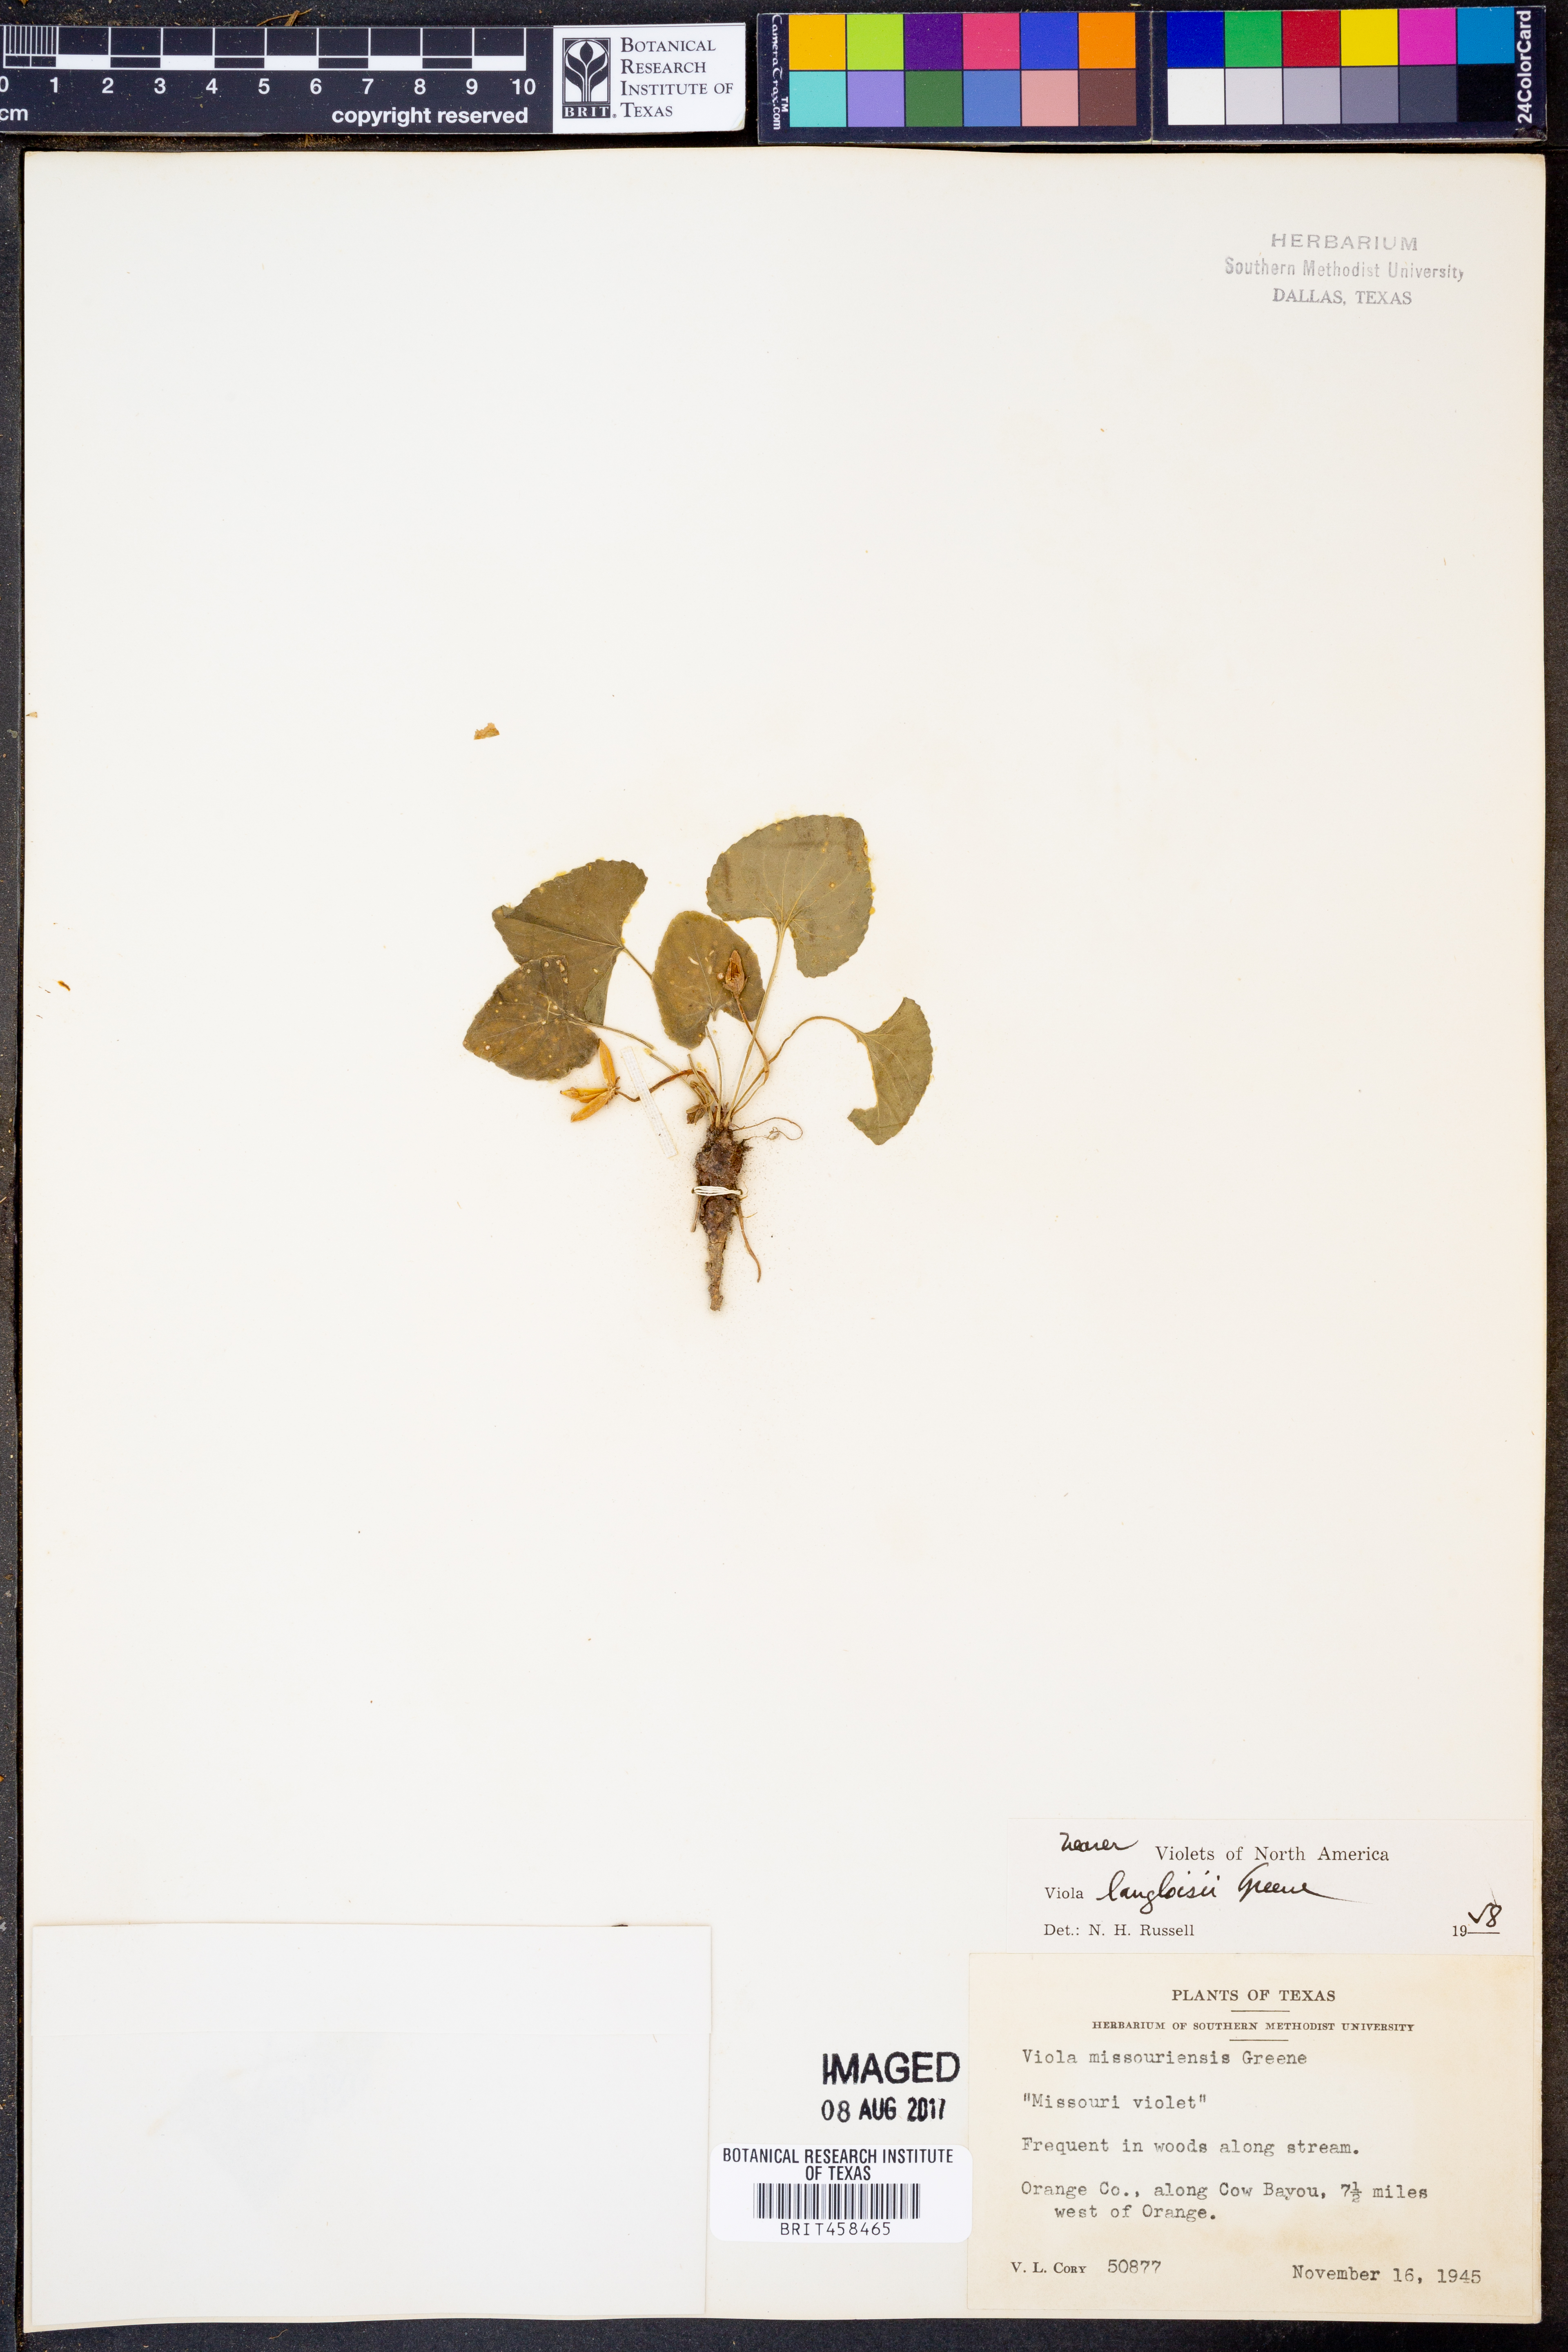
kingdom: Plantae
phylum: Tracheophyta
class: Magnoliopsida
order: Malpighiales
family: Violaceae
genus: Viola
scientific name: Viola langloisii
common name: Langlois' violet
